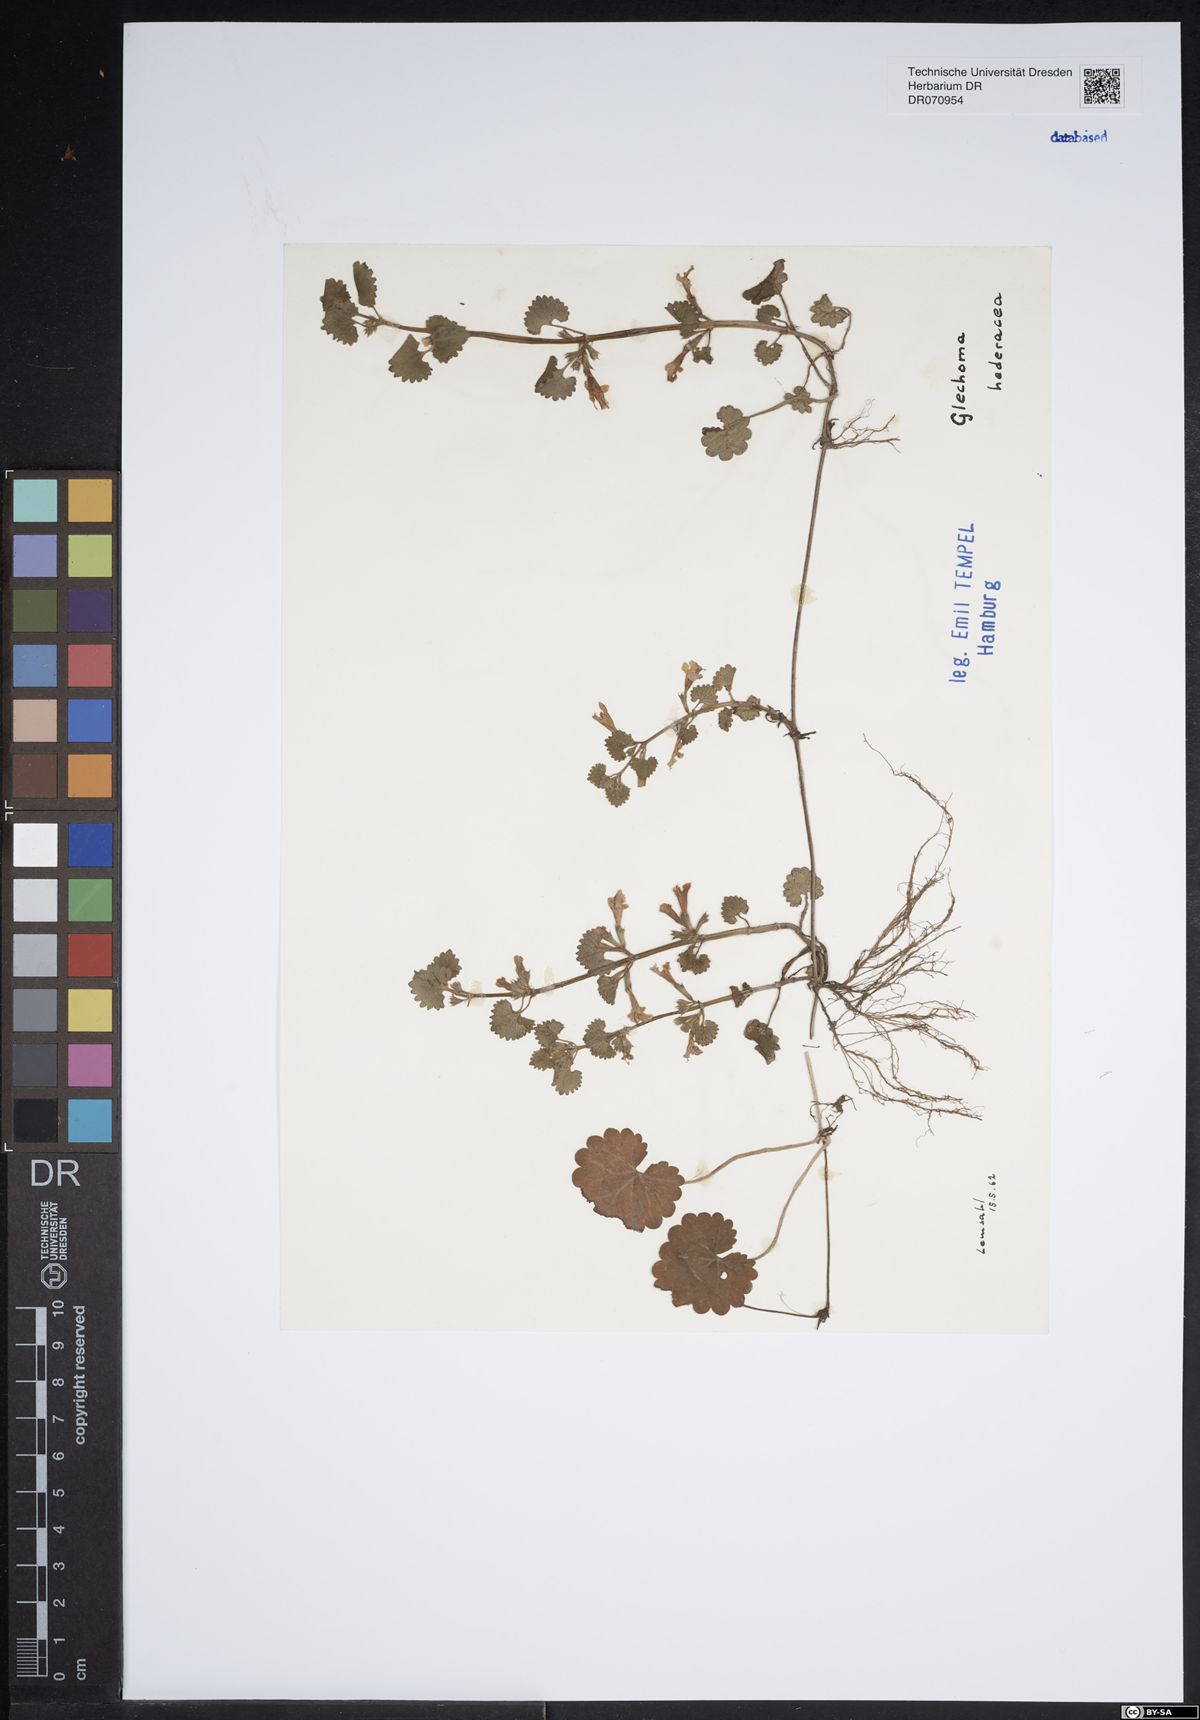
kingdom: Plantae
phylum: Tracheophyta
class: Magnoliopsida
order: Lamiales
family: Lamiaceae
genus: Glechoma
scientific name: Glechoma hederacea
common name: Ground ivy
